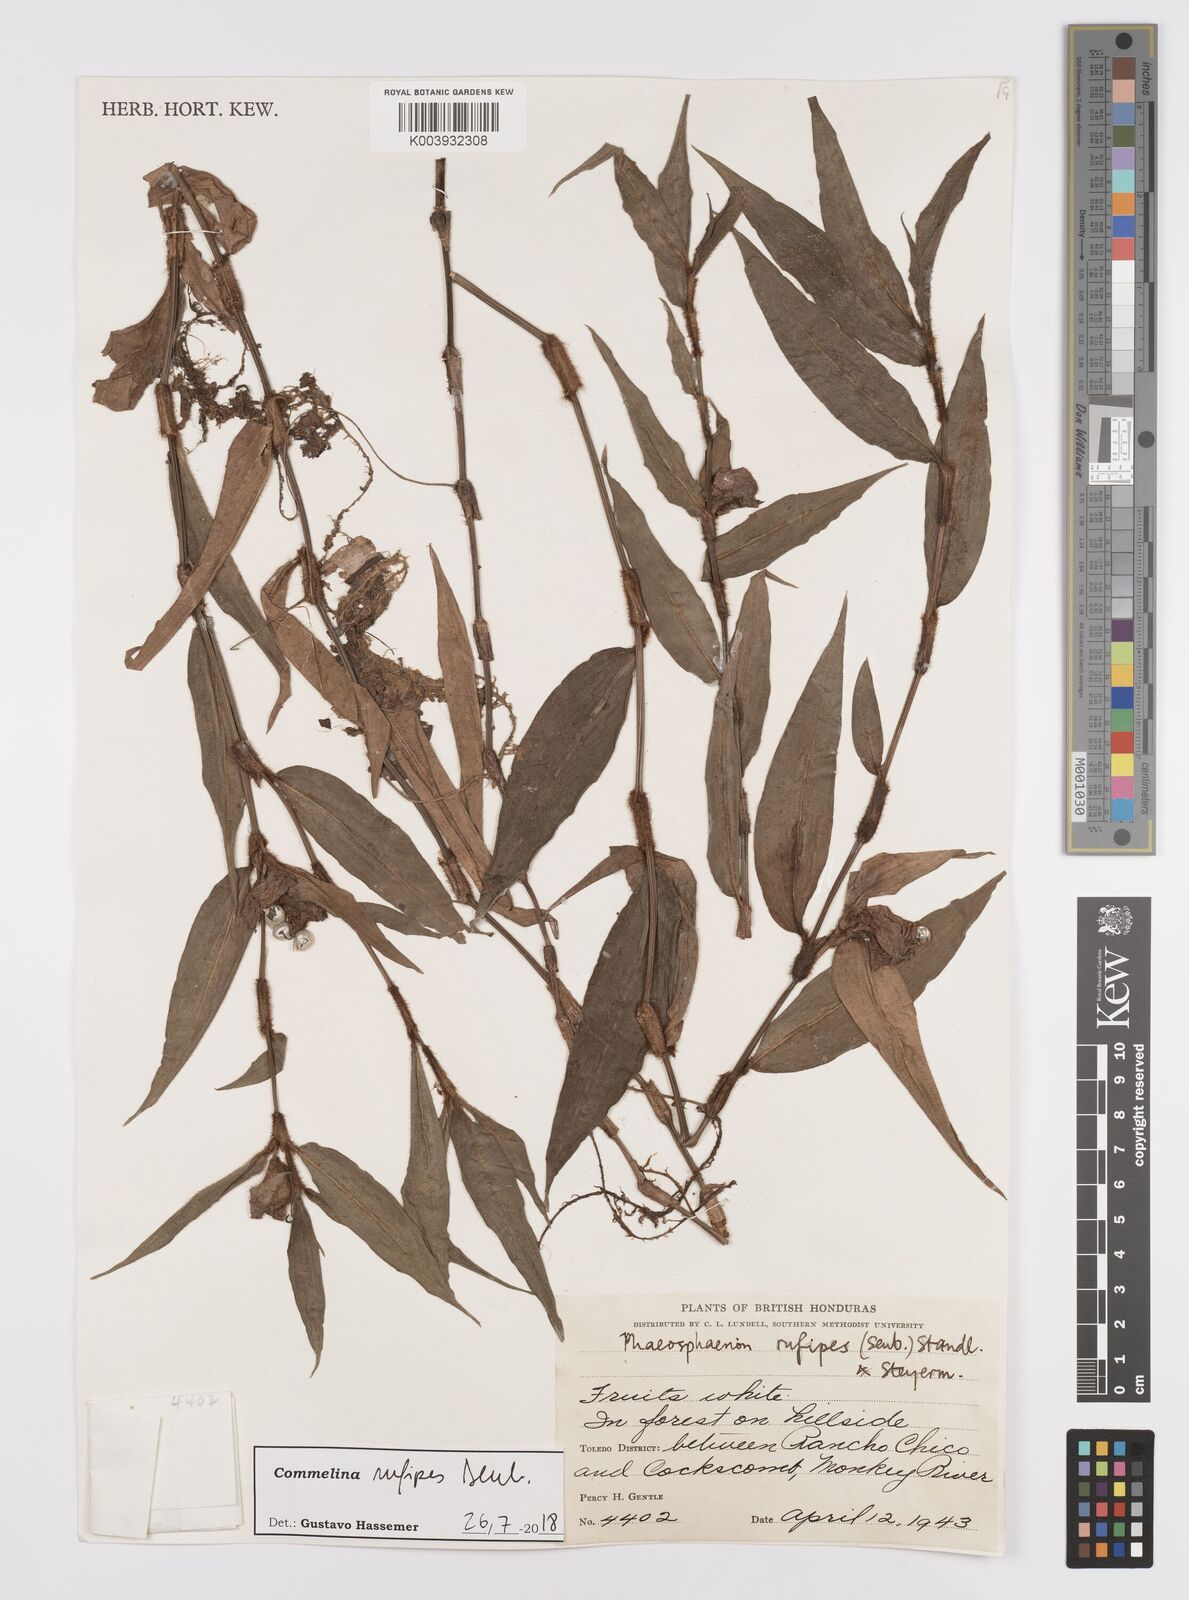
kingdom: Plantae
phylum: Tracheophyta
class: Liliopsida
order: Commelinales
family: Commelinaceae
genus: Commelina
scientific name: Commelina rufipes
